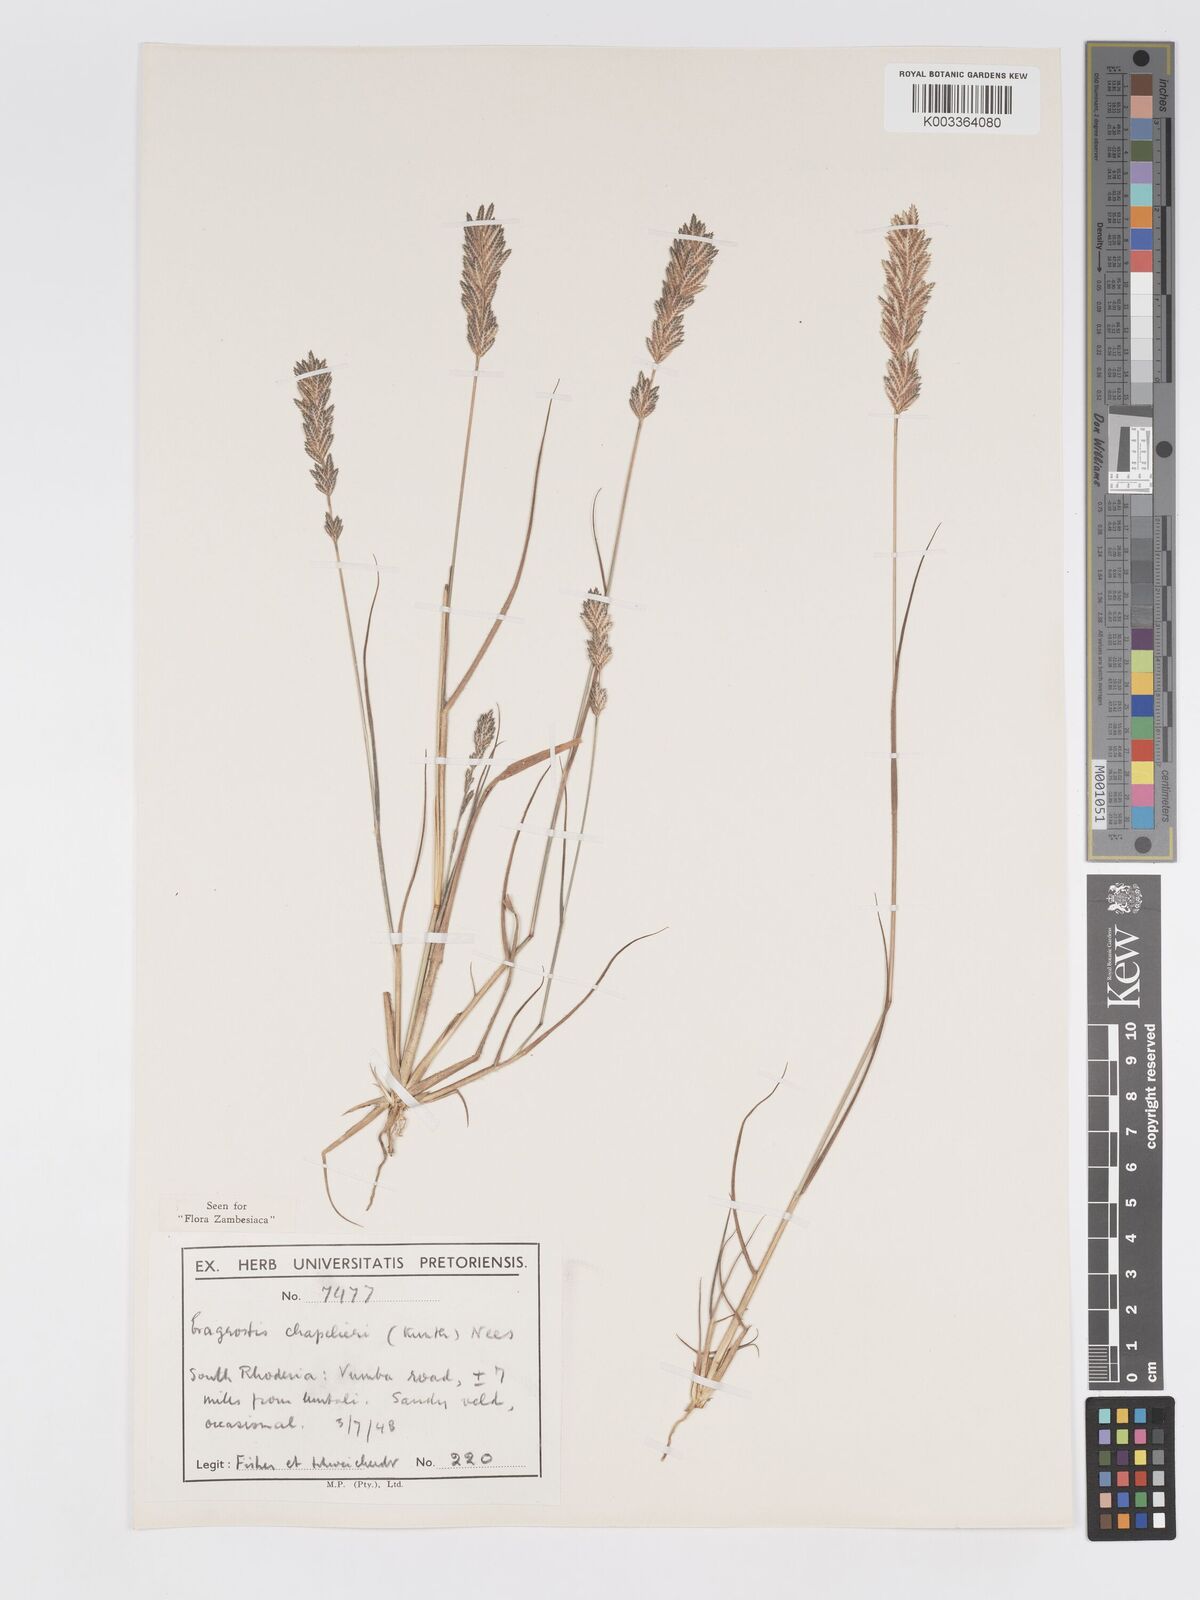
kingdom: Plantae
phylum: Tracheophyta
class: Liliopsida
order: Poales
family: Poaceae
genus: Eragrostis
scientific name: Eragrostis chapelieri
